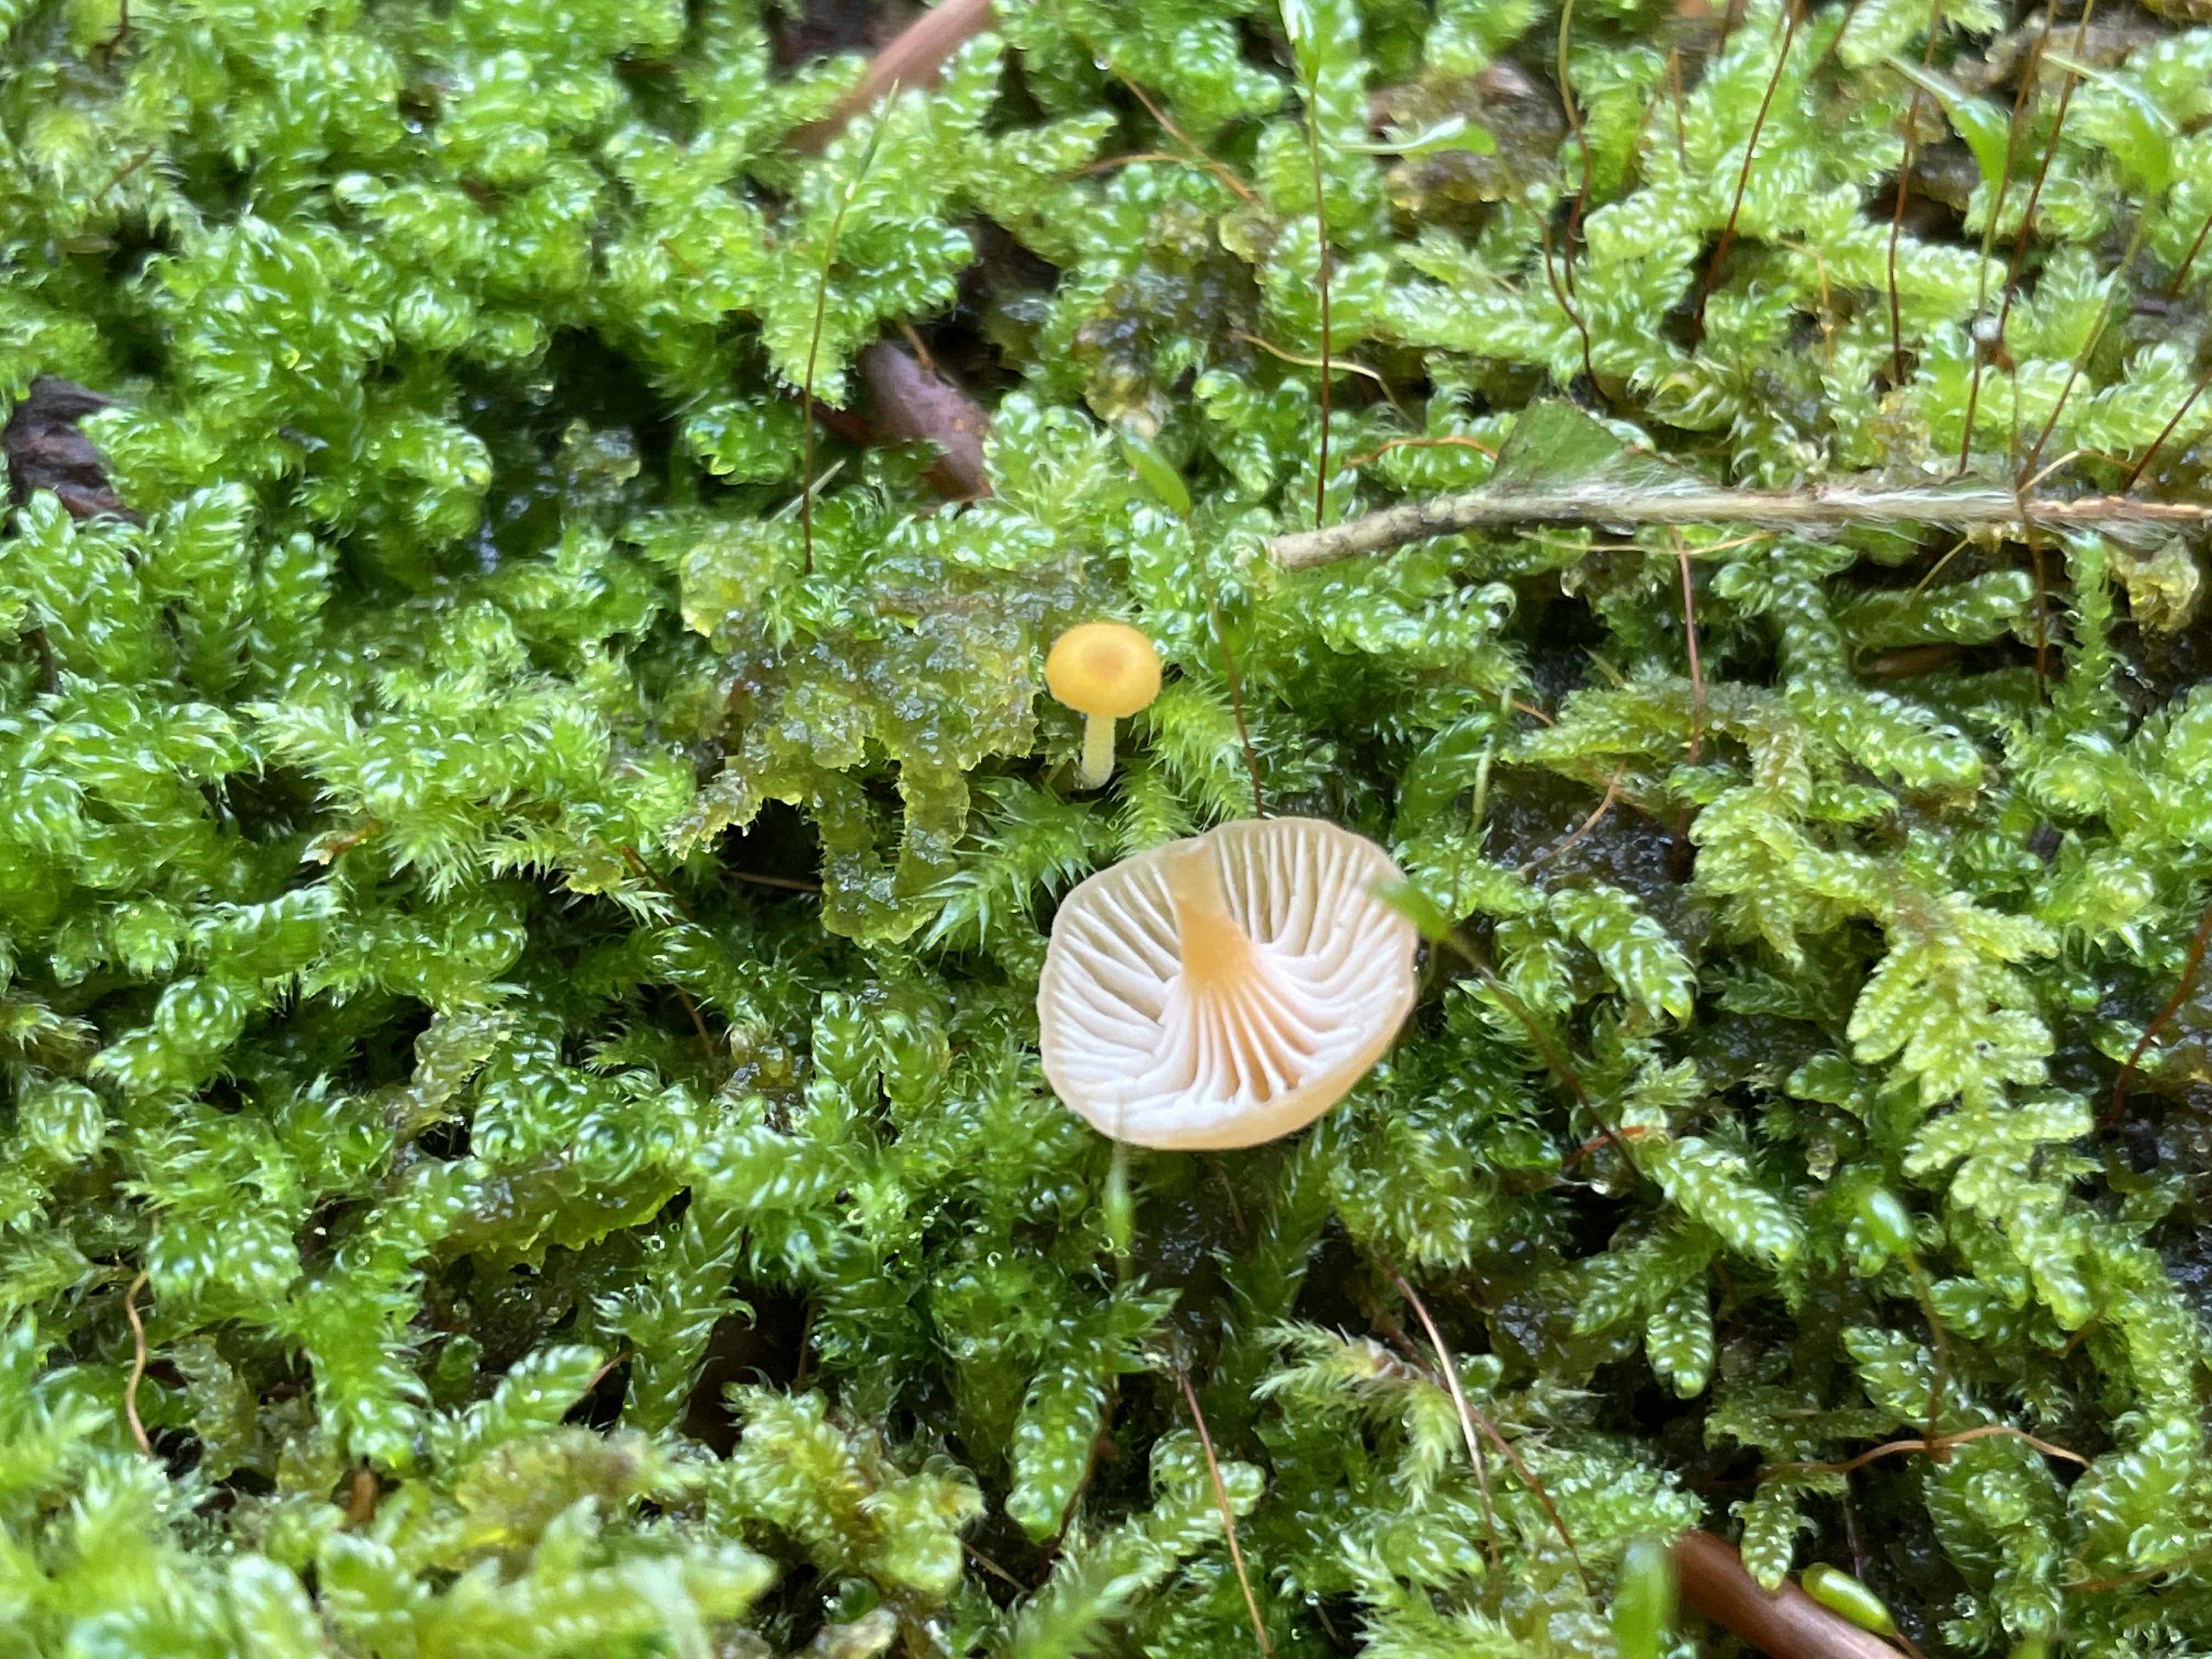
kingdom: Fungi
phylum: Basidiomycota
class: Agaricomycetes
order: Hymenochaetales
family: Rickenellaceae
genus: Rickenella
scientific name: Rickenella fibula
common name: orange mosnavlehat
